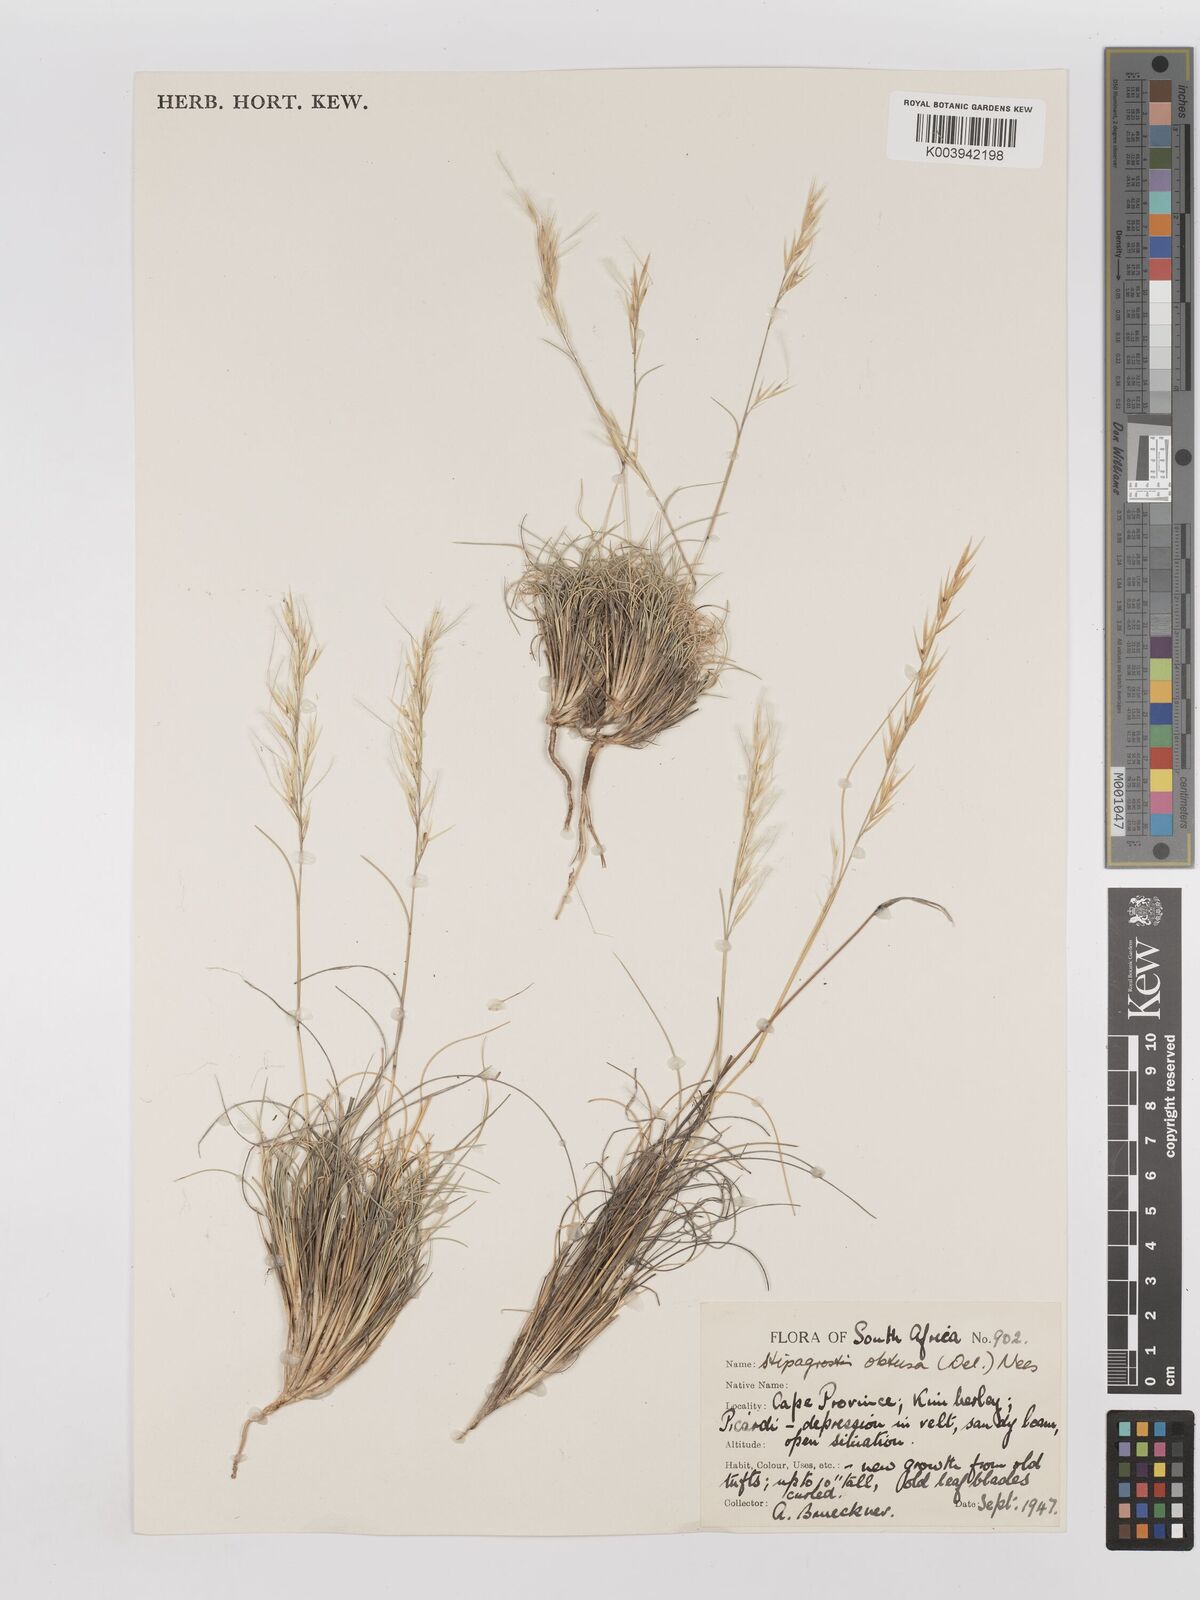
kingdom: Plantae
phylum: Tracheophyta
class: Liliopsida
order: Poales
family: Poaceae
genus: Stipagrostis
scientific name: Stipagrostis obtusa
